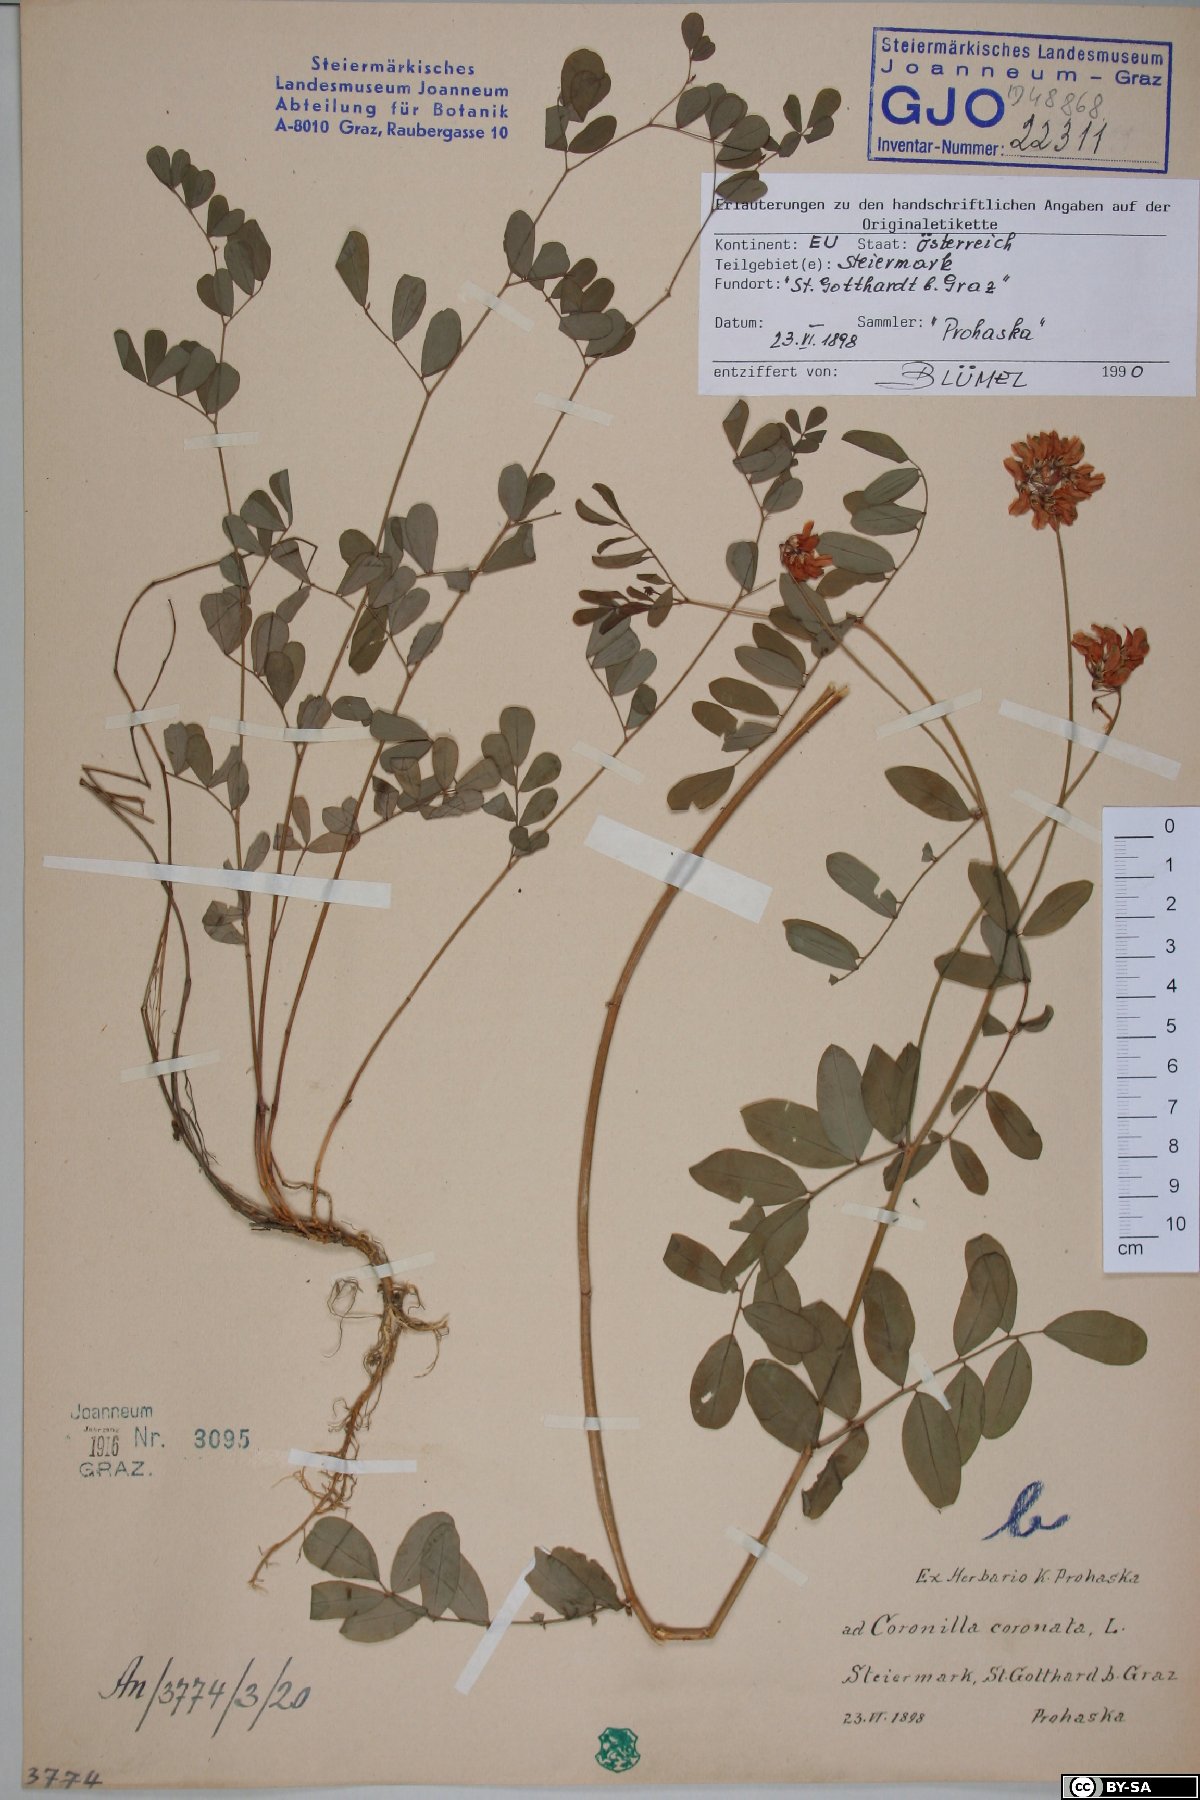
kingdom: Plantae
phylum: Tracheophyta
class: Magnoliopsida
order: Fabales
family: Fabaceae
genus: Coronilla
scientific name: Coronilla coronata
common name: Scorpion-vetch
